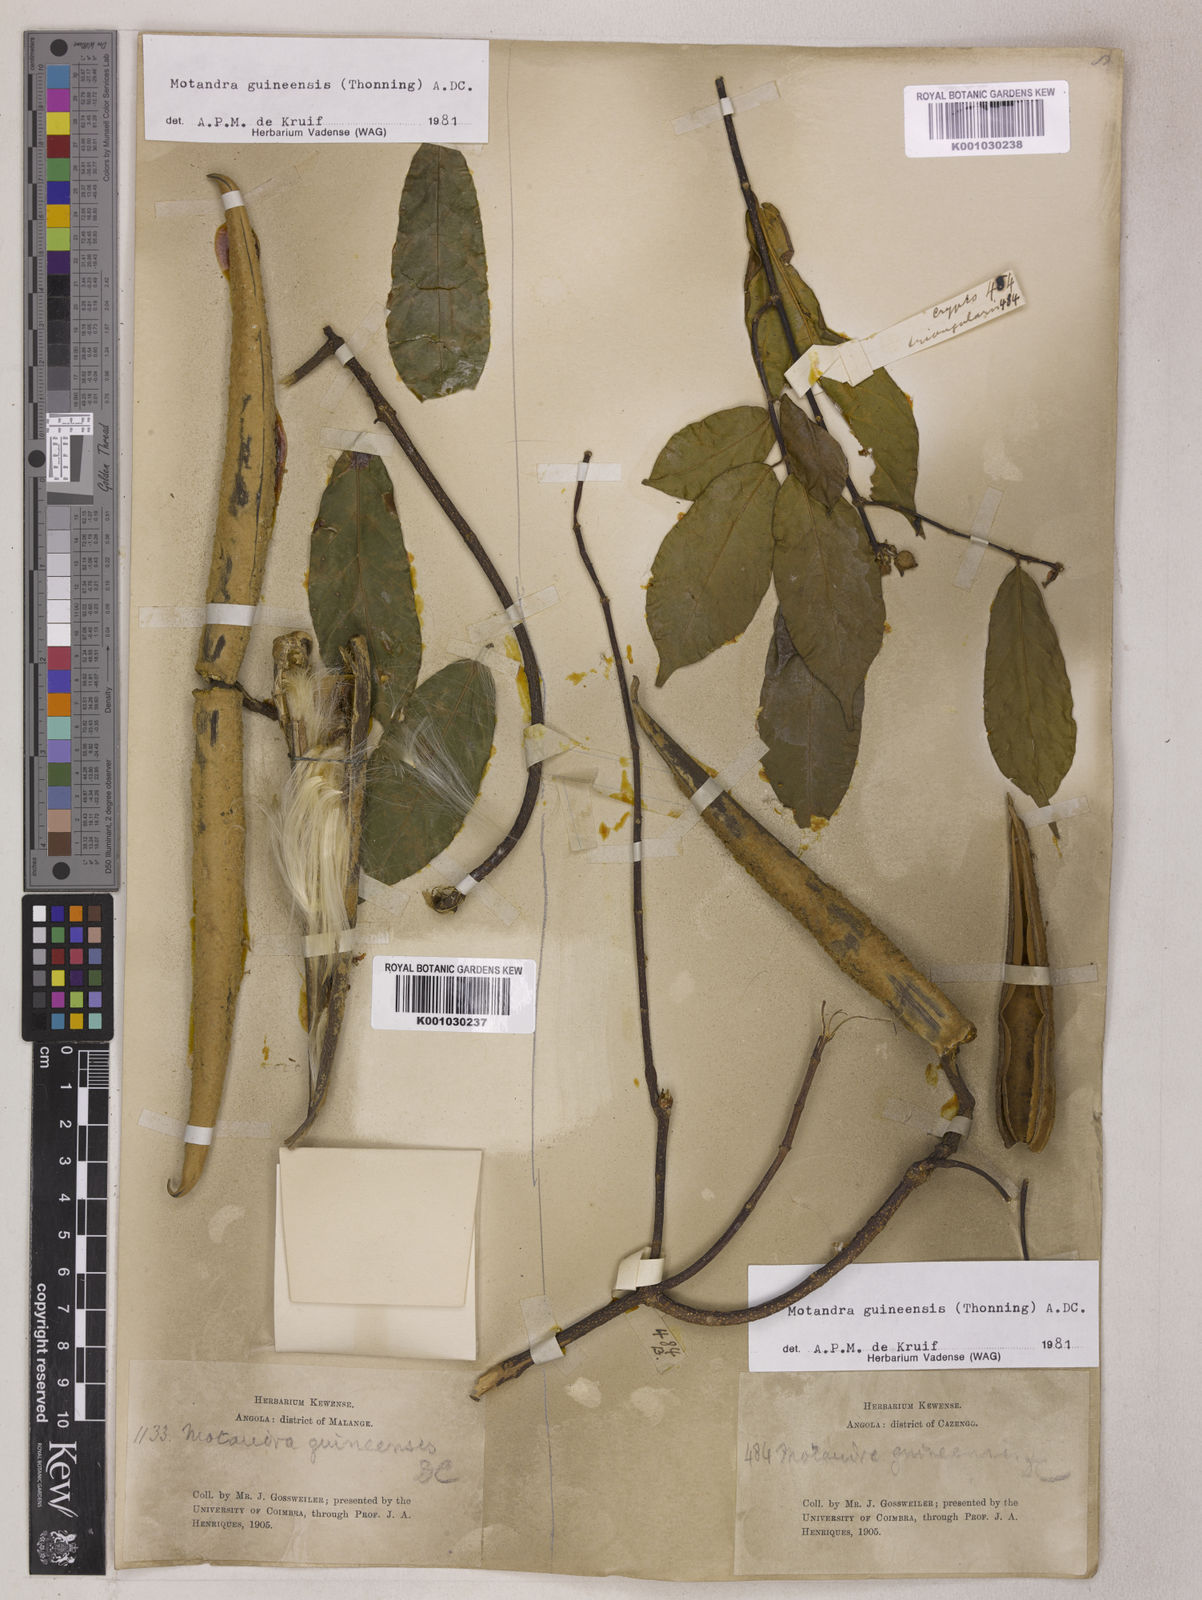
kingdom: Plantae
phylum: Tracheophyta
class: Magnoliopsida
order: Gentianales
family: Apocynaceae
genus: Motandra
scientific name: Motandra paniculata
